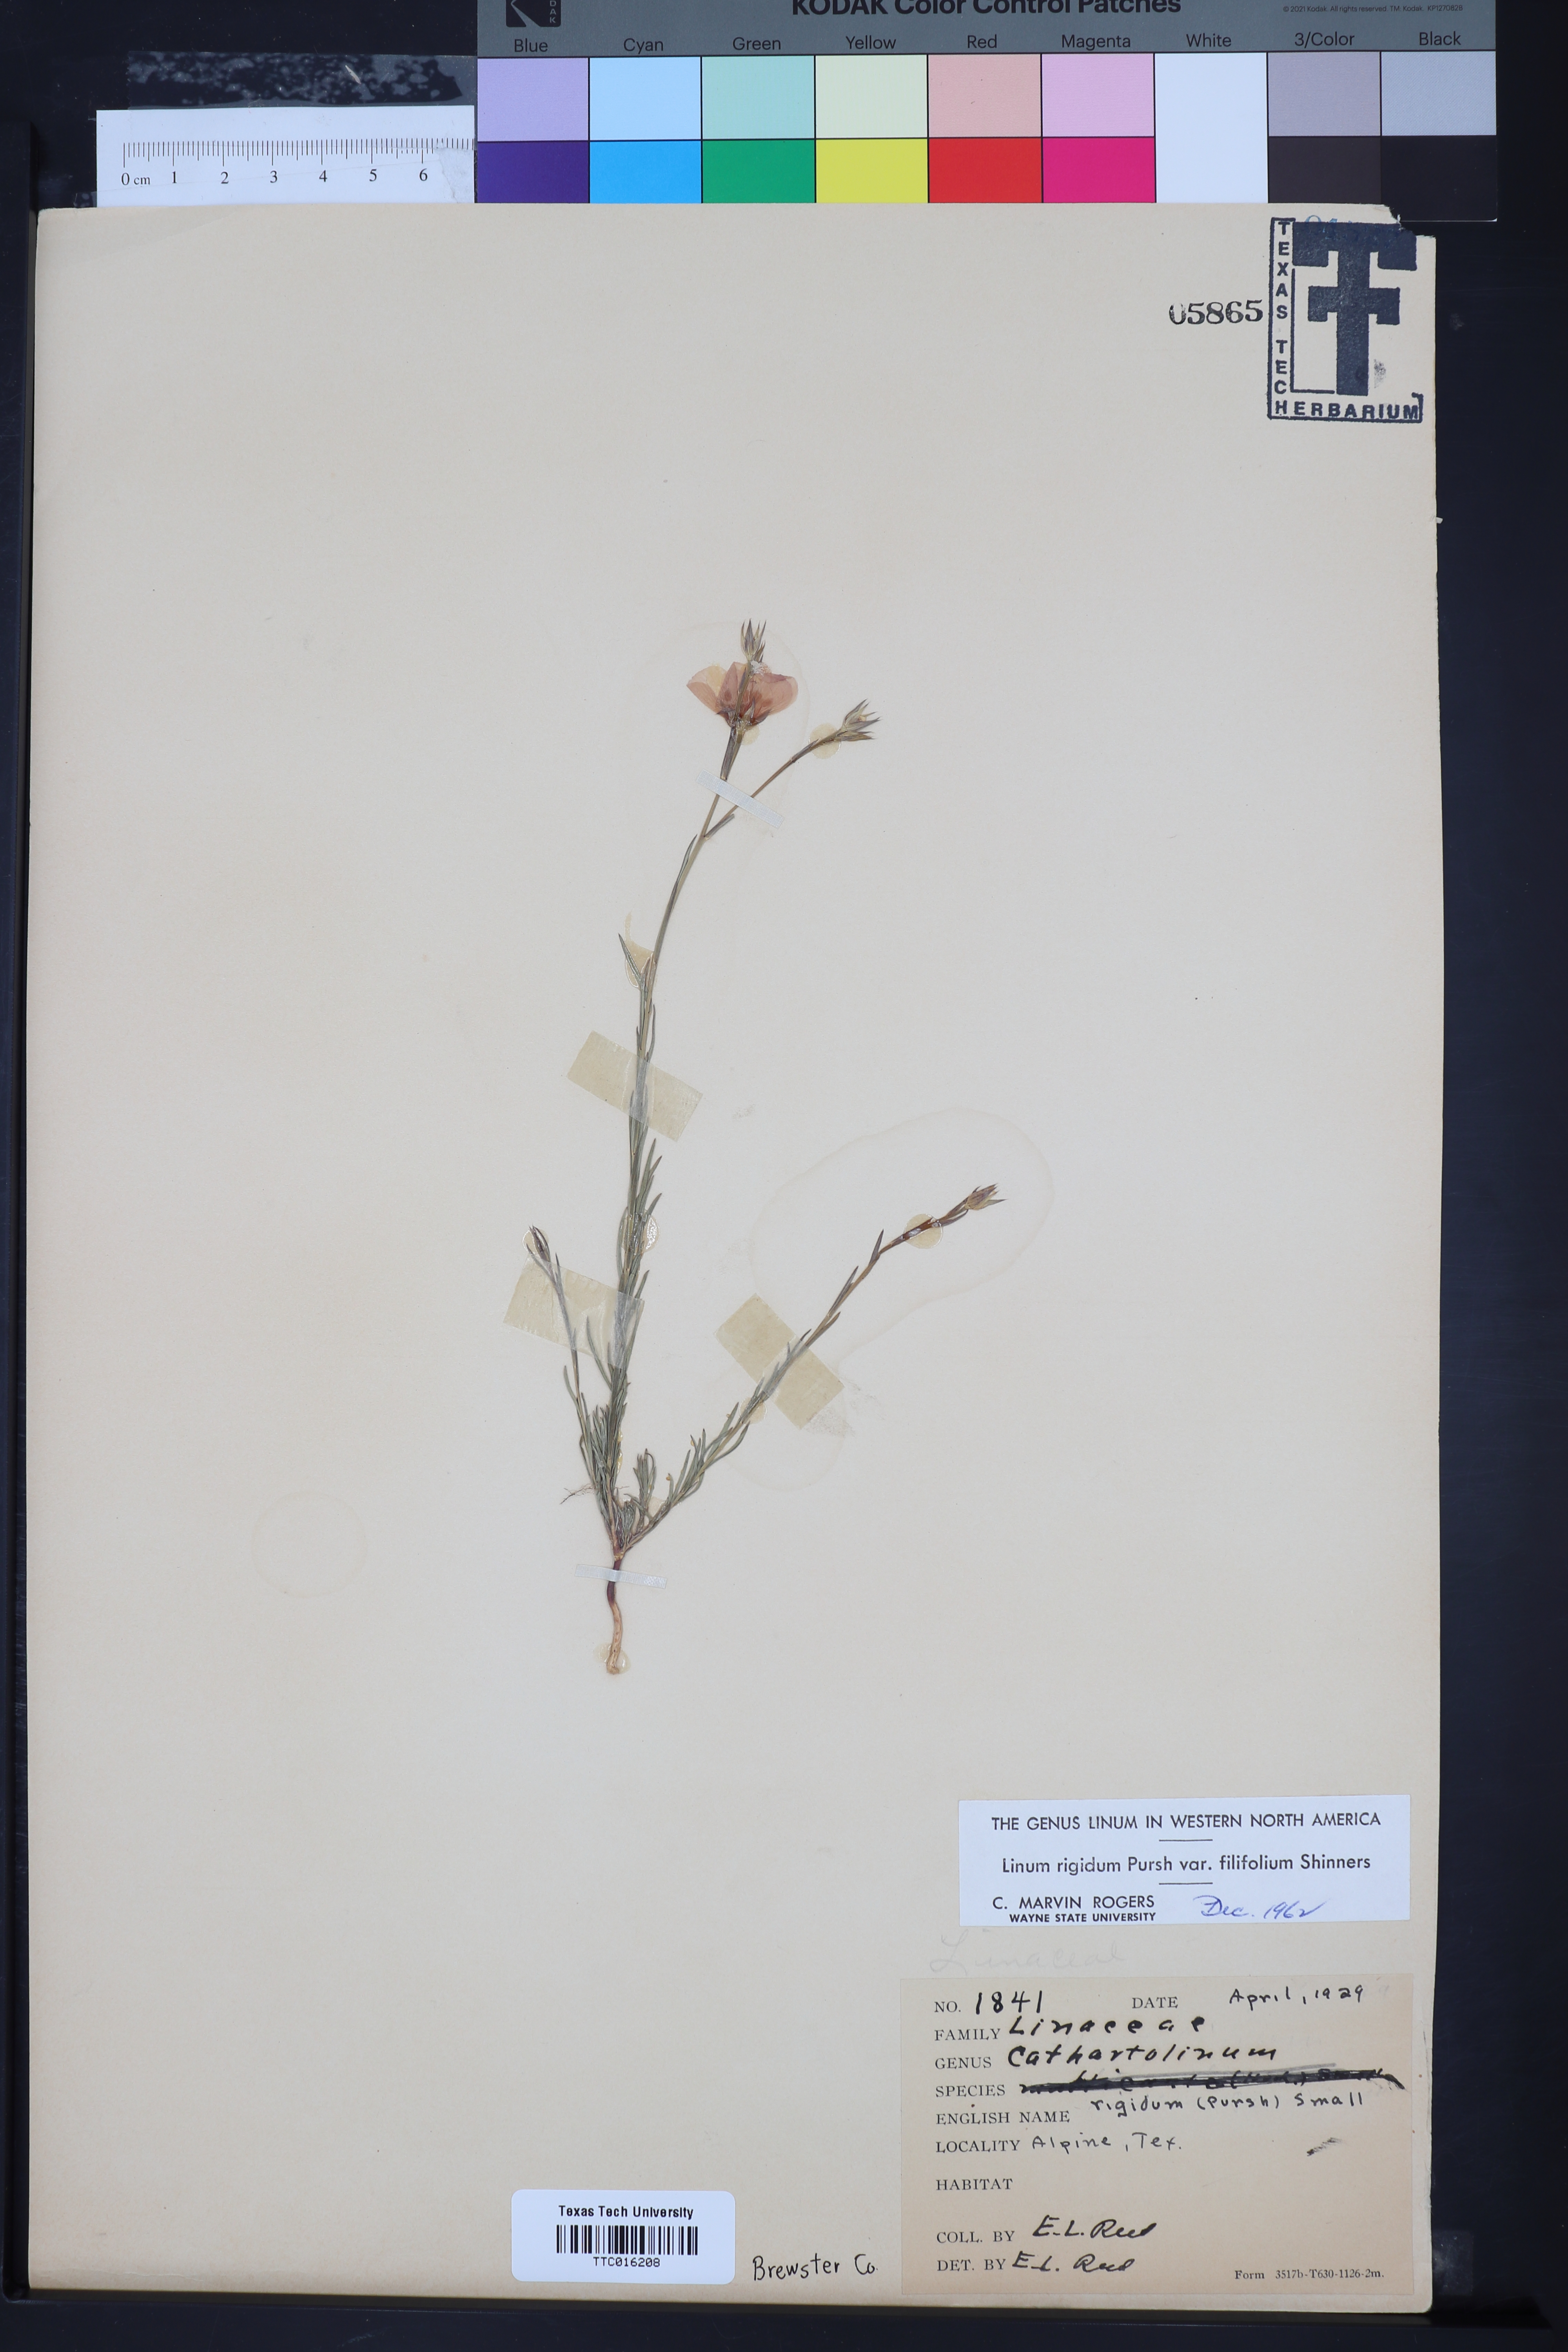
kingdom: Plantae
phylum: Tracheophyta
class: Magnoliopsida
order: Malpighiales
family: Linaceae
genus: Linum
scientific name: Linum berlandieri
